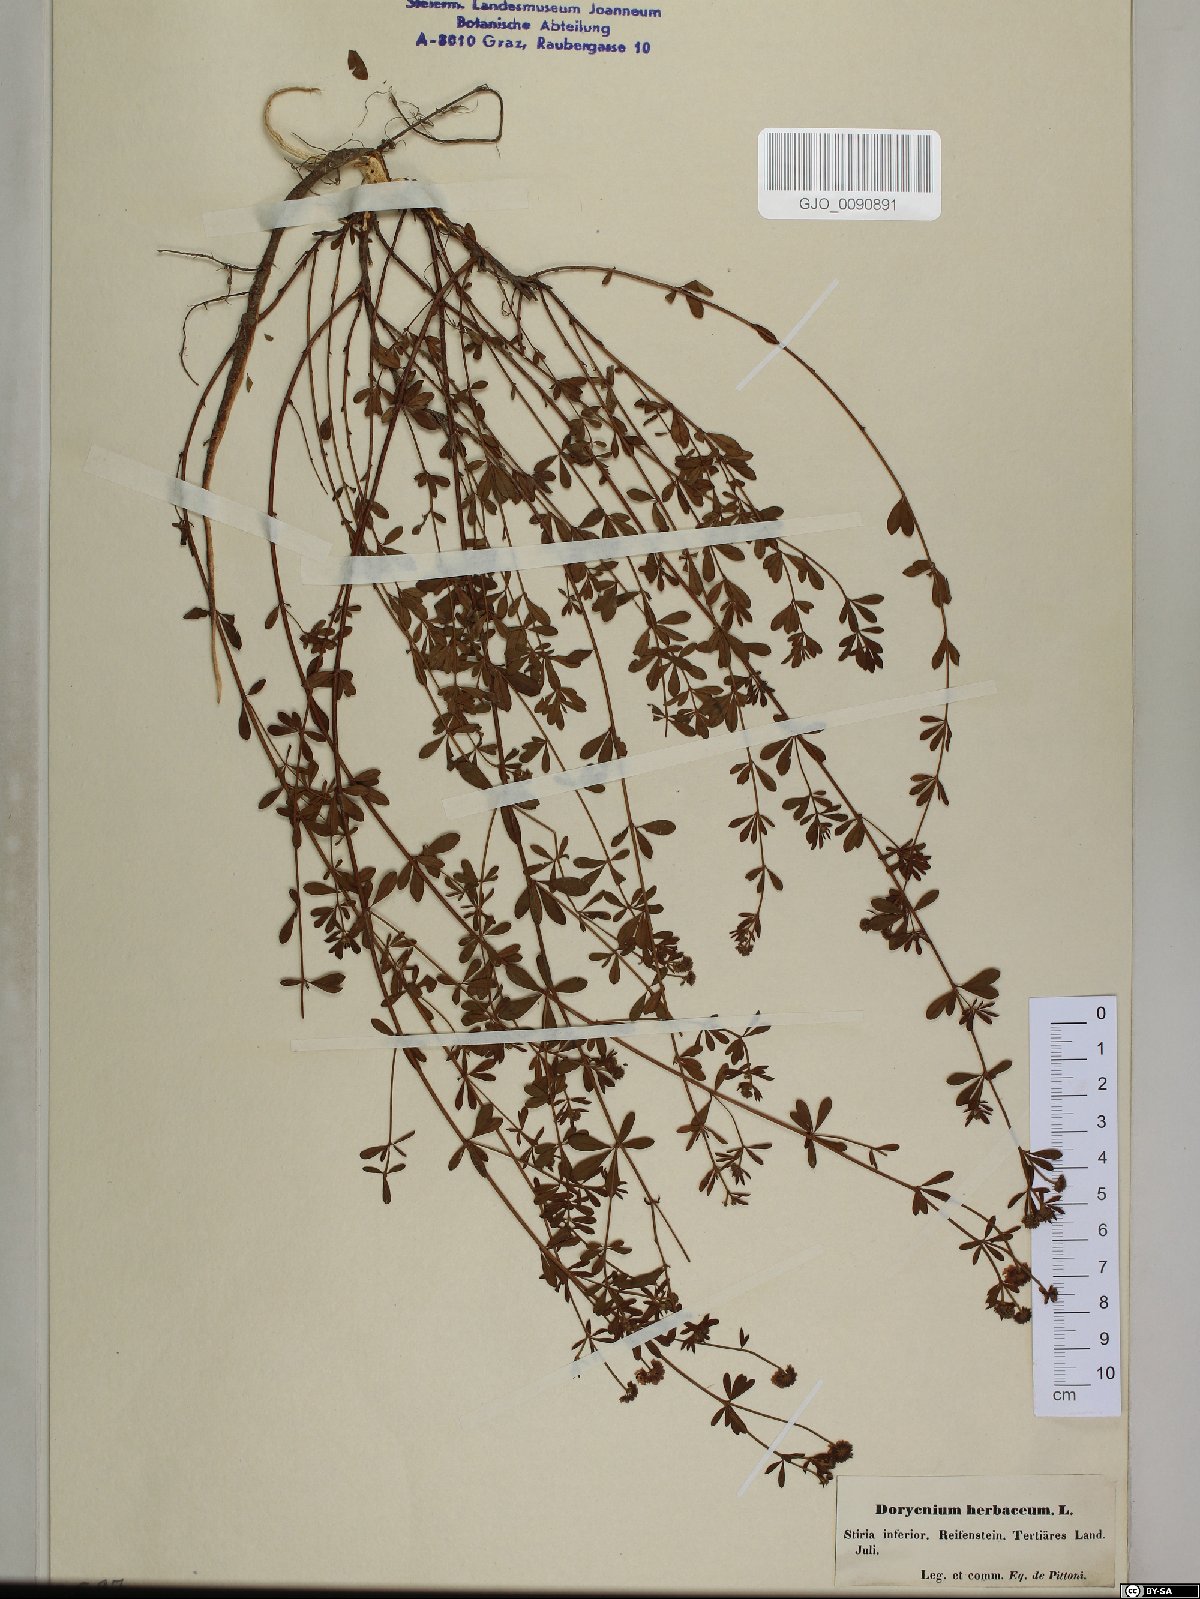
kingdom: Plantae
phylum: Tracheophyta
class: Magnoliopsida
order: Fabales
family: Fabaceae
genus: Lotus
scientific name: Lotus herbaceus
